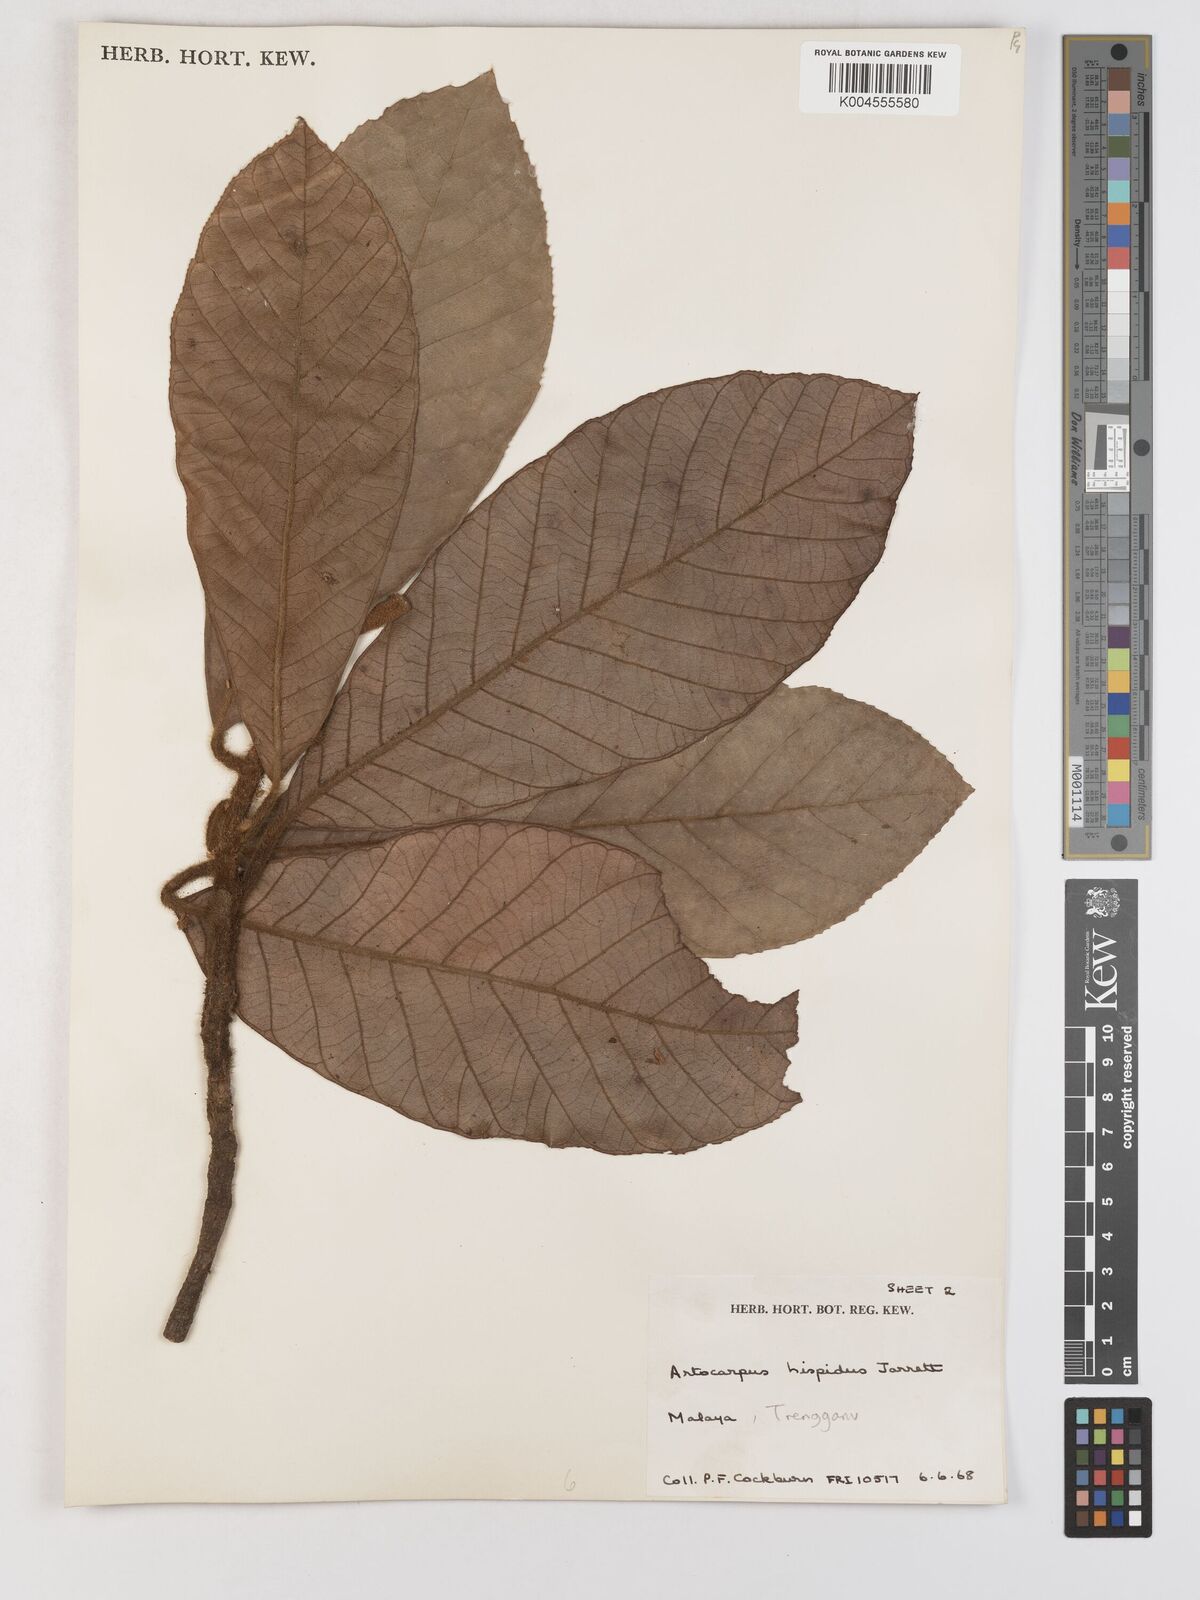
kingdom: Plantae
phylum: Tracheophyta
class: Magnoliopsida
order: Rosales
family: Moraceae
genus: Artocarpus
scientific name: Artocarpus hispidus
